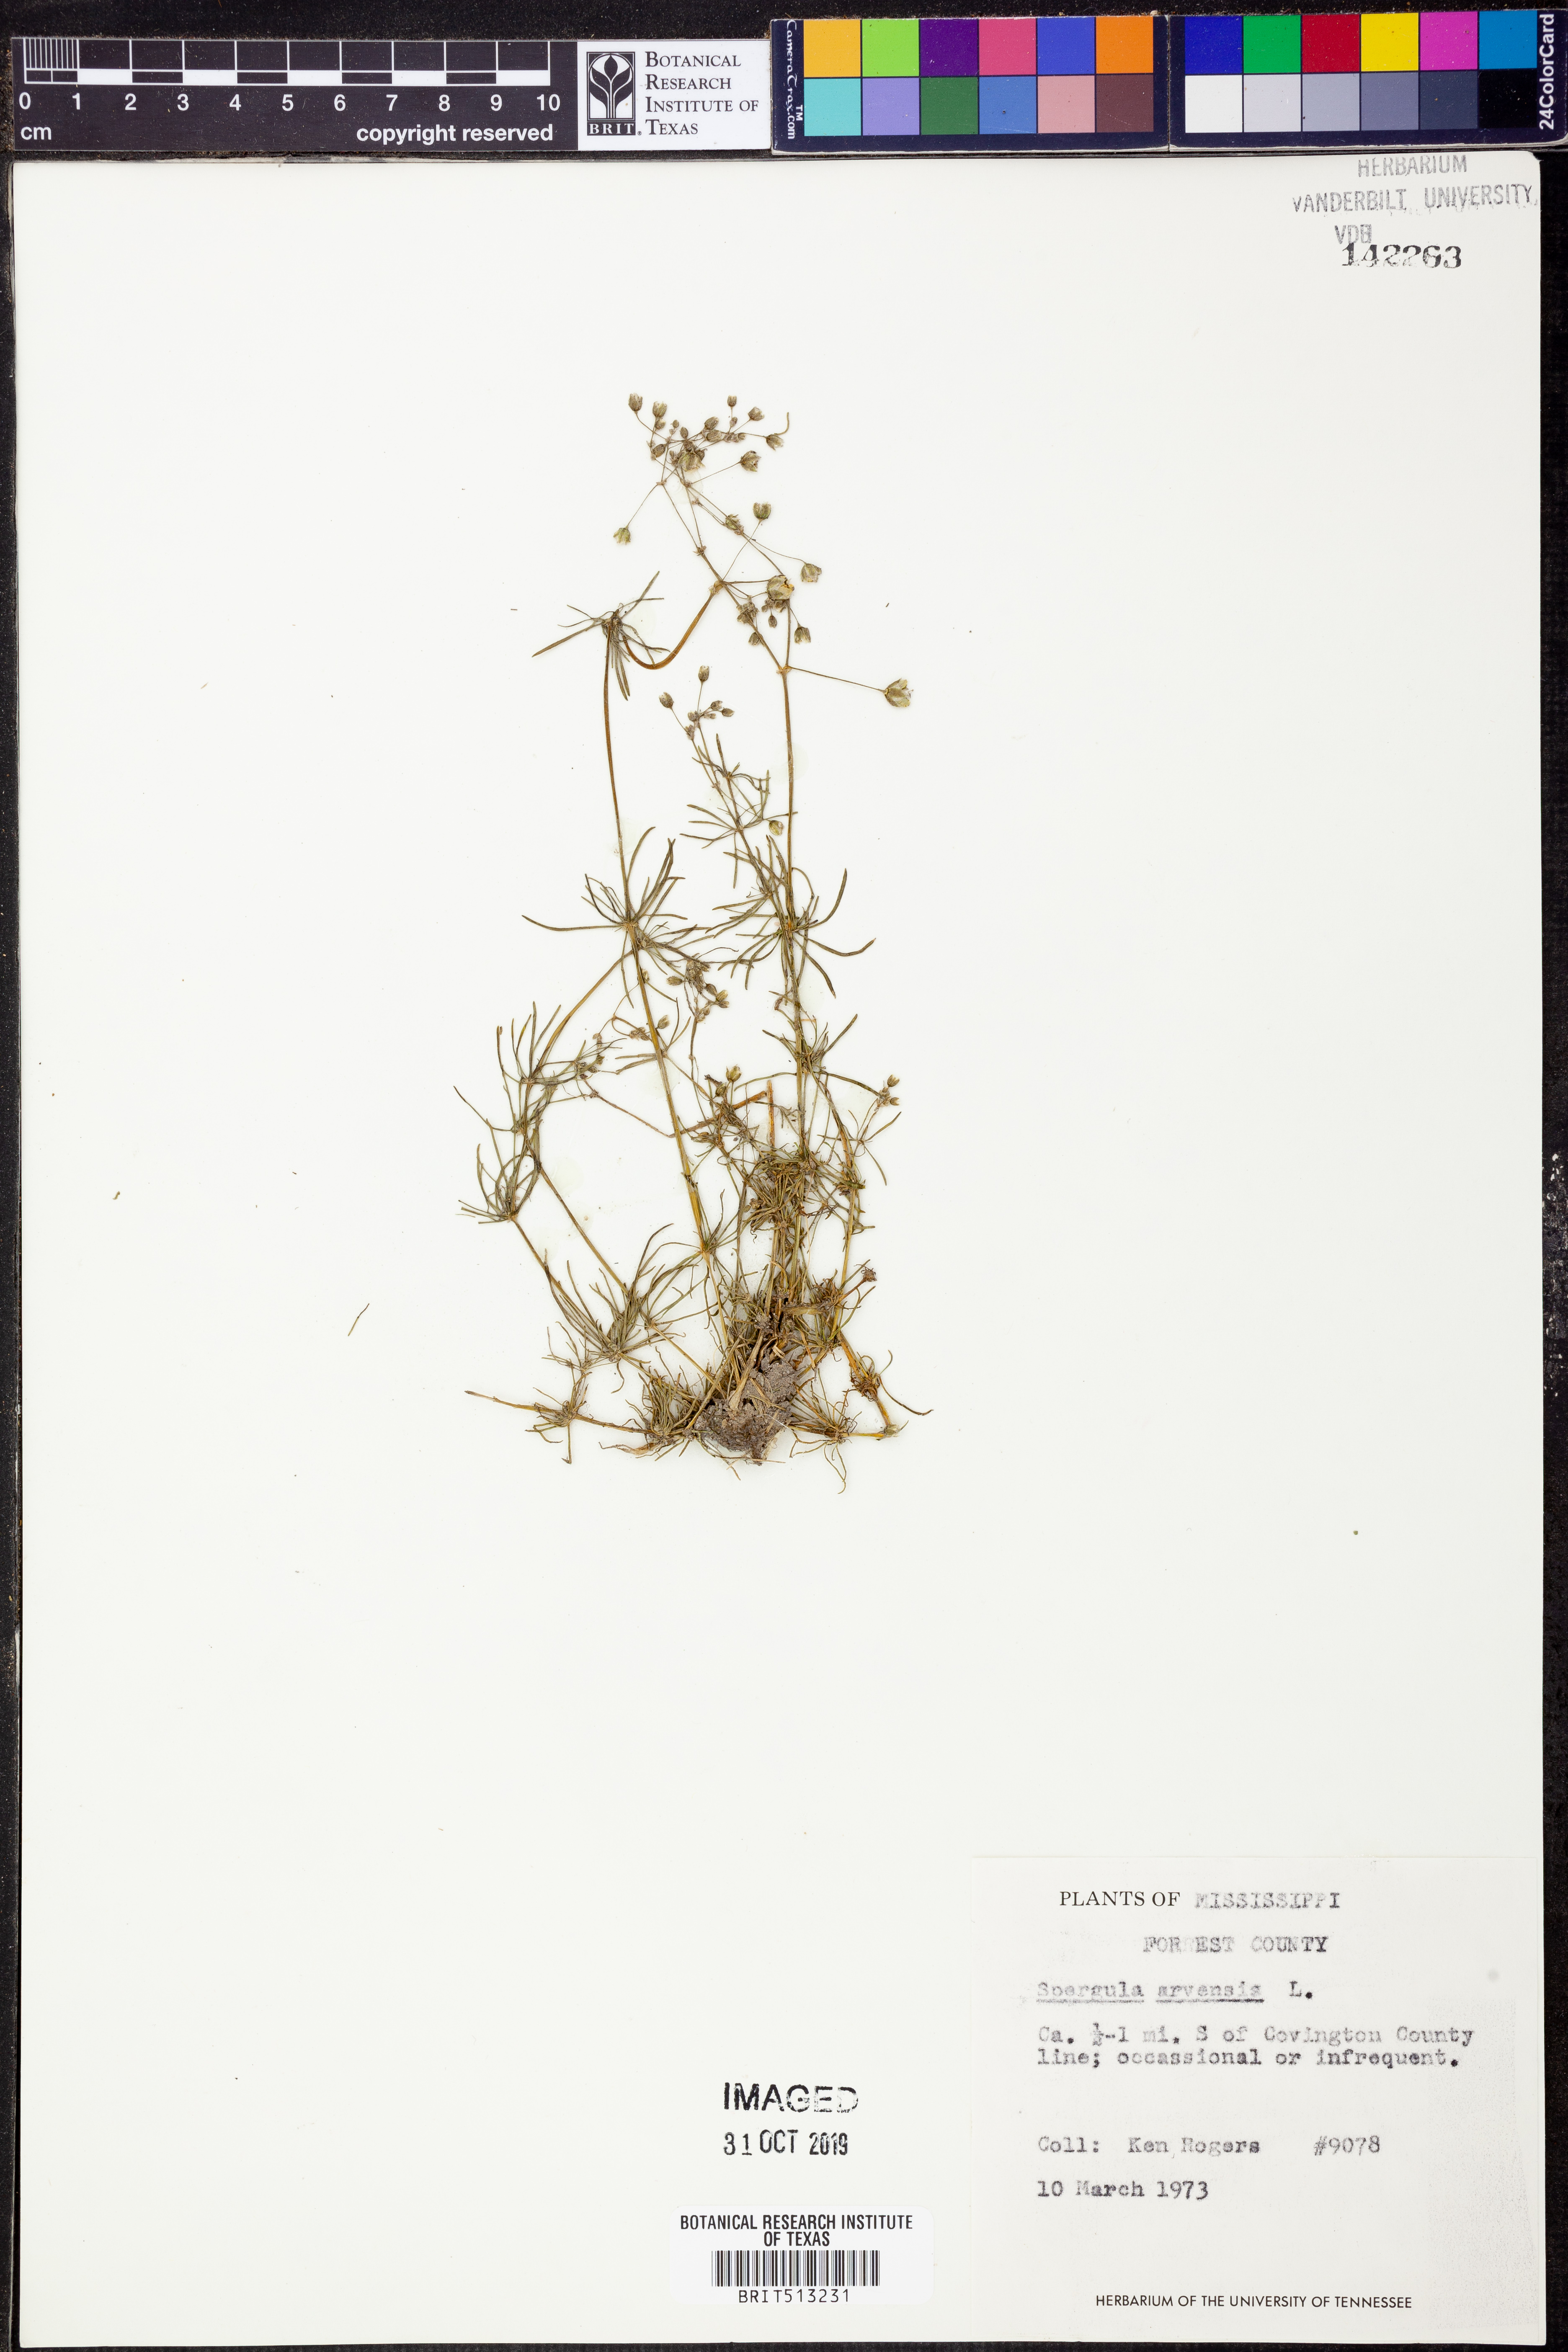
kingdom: Plantae
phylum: Tracheophyta
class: Magnoliopsida
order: Caryophyllales
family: Caryophyllaceae
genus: Spergula
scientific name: Spergula arvensis
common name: Corn spurrey
